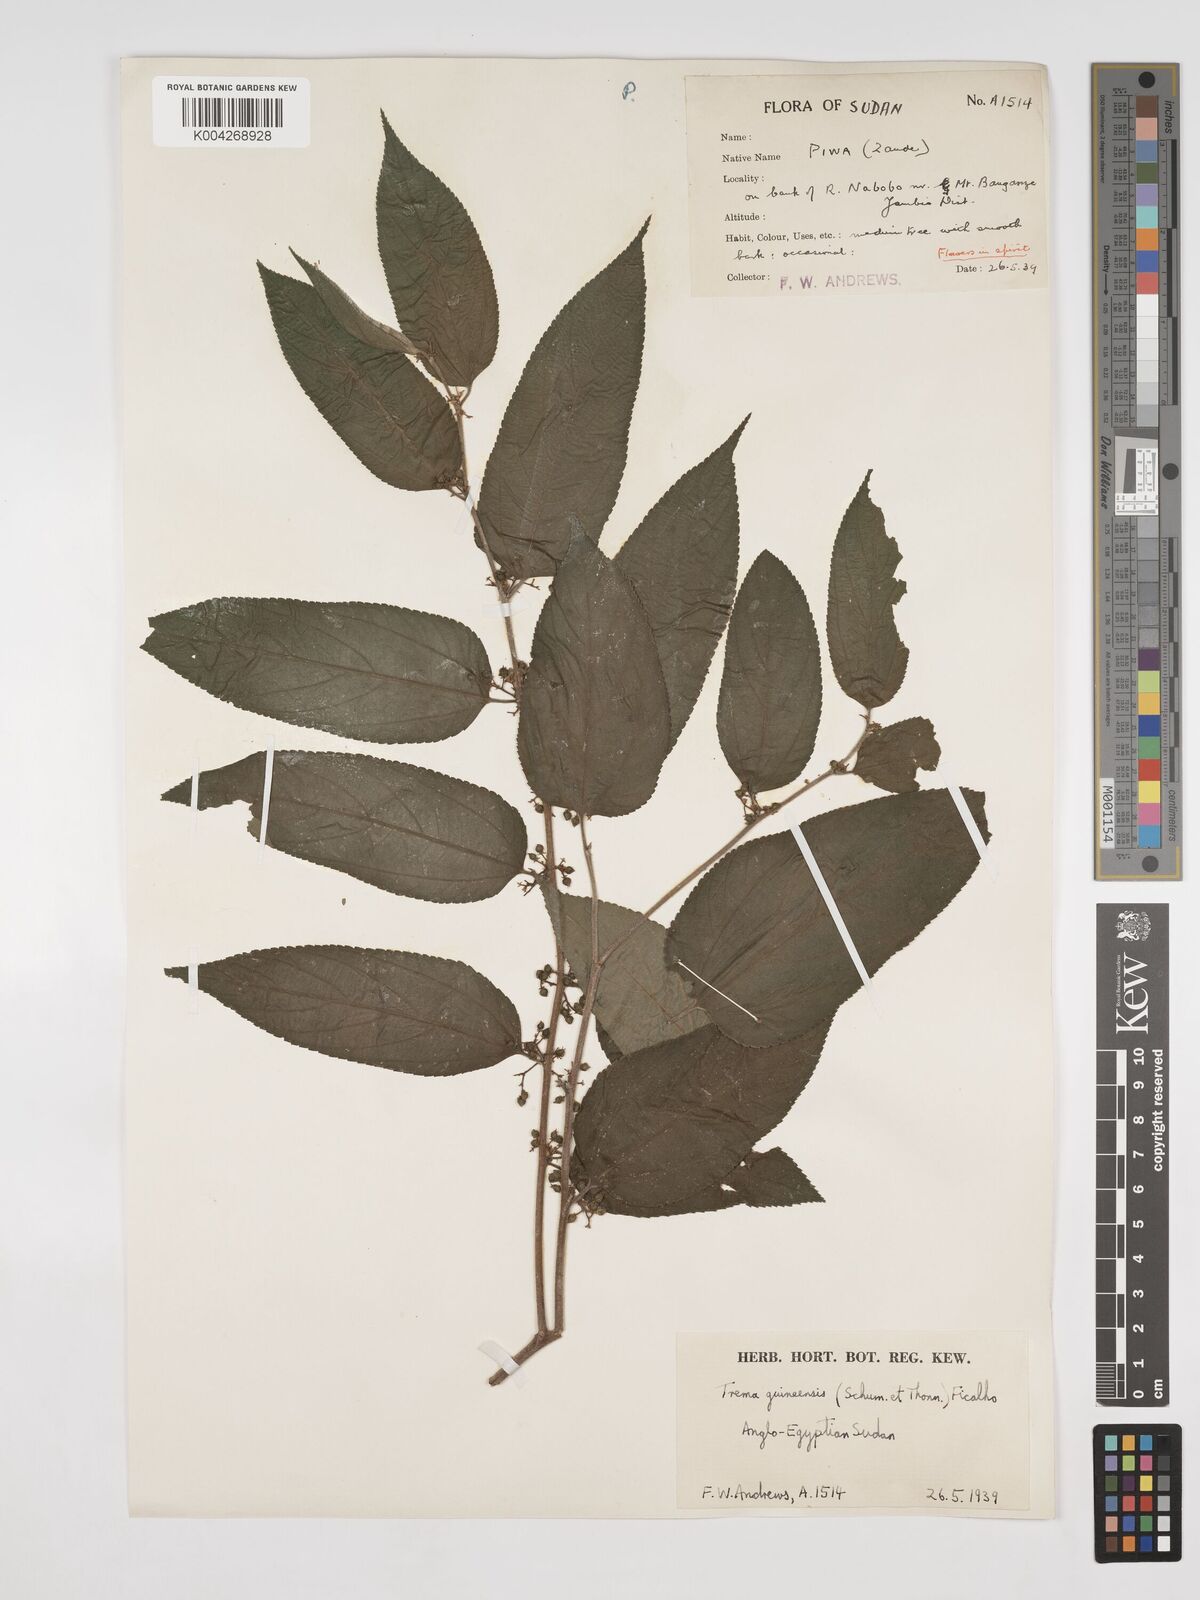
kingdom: Plantae
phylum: Tracheophyta
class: Magnoliopsida
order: Rosales
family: Cannabaceae
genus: Trema
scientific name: Trema orientale
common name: Indian charcoal tree
